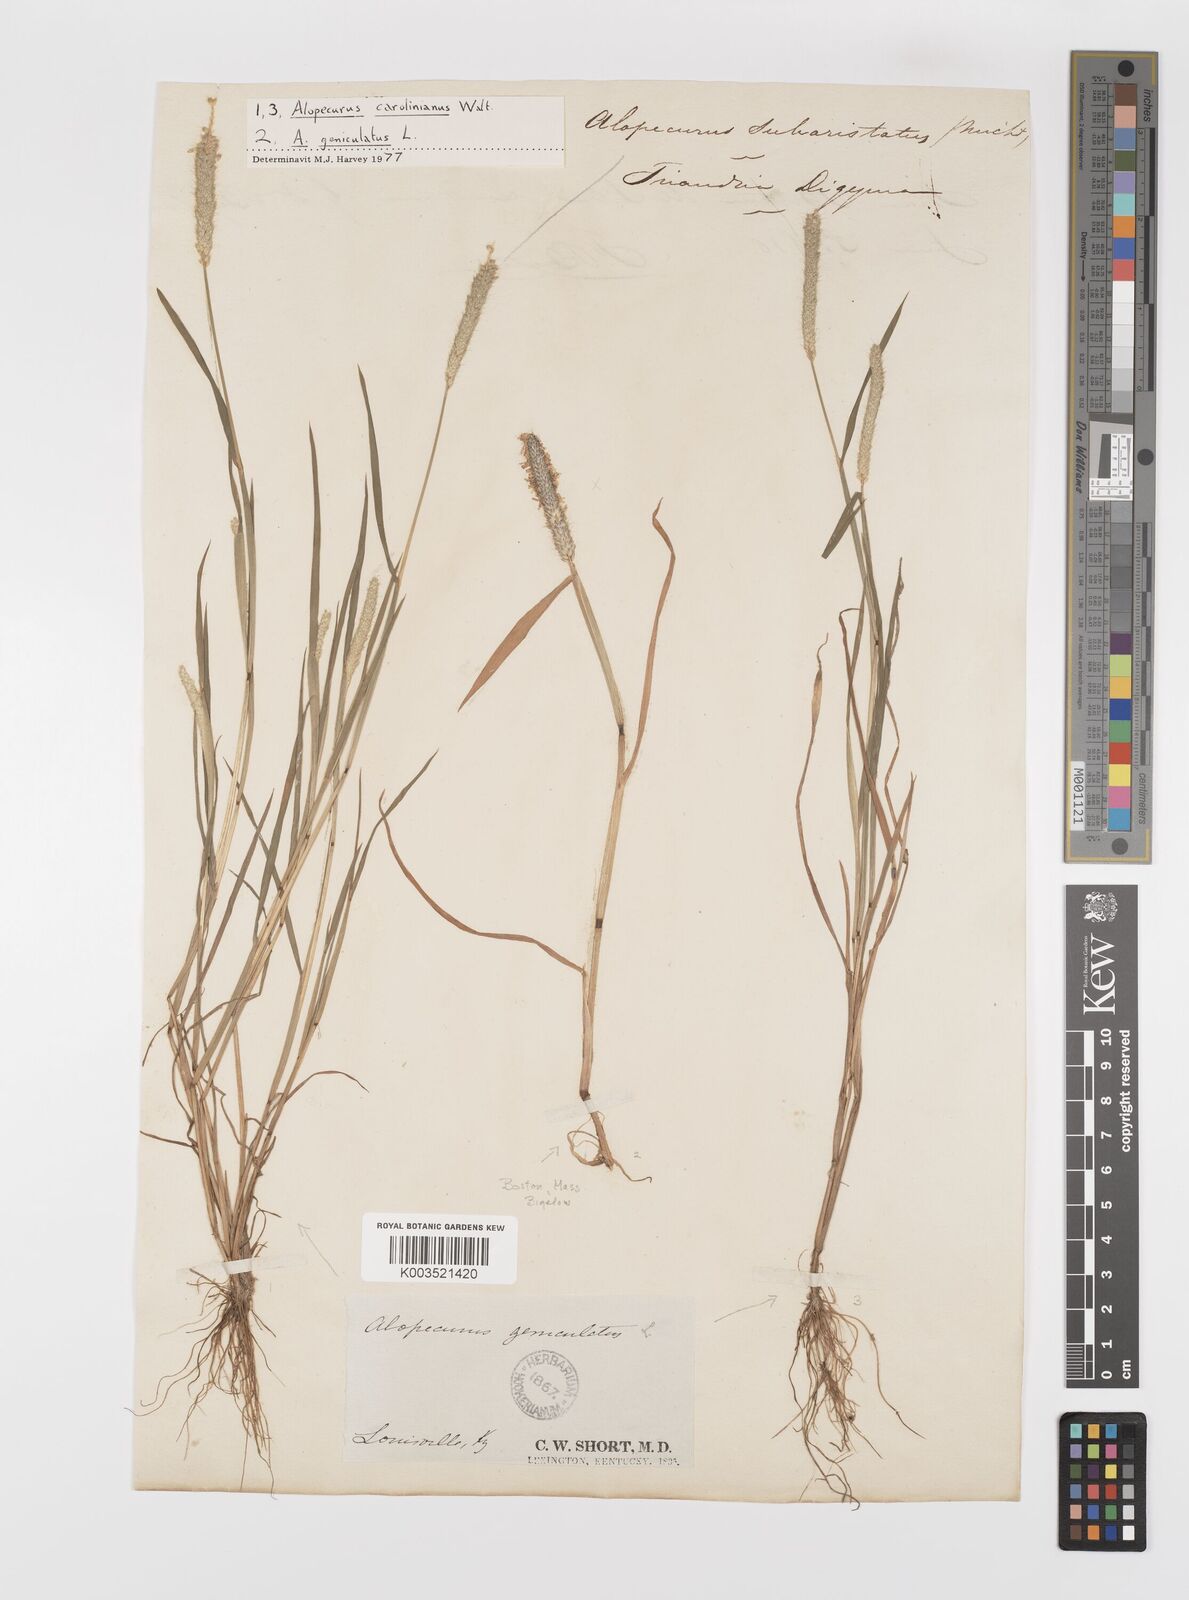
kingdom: Plantae
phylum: Tracheophyta
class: Liliopsida
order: Poales
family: Poaceae
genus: Alopecurus
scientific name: Alopecurus carolinianus
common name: Tufted foxtail
